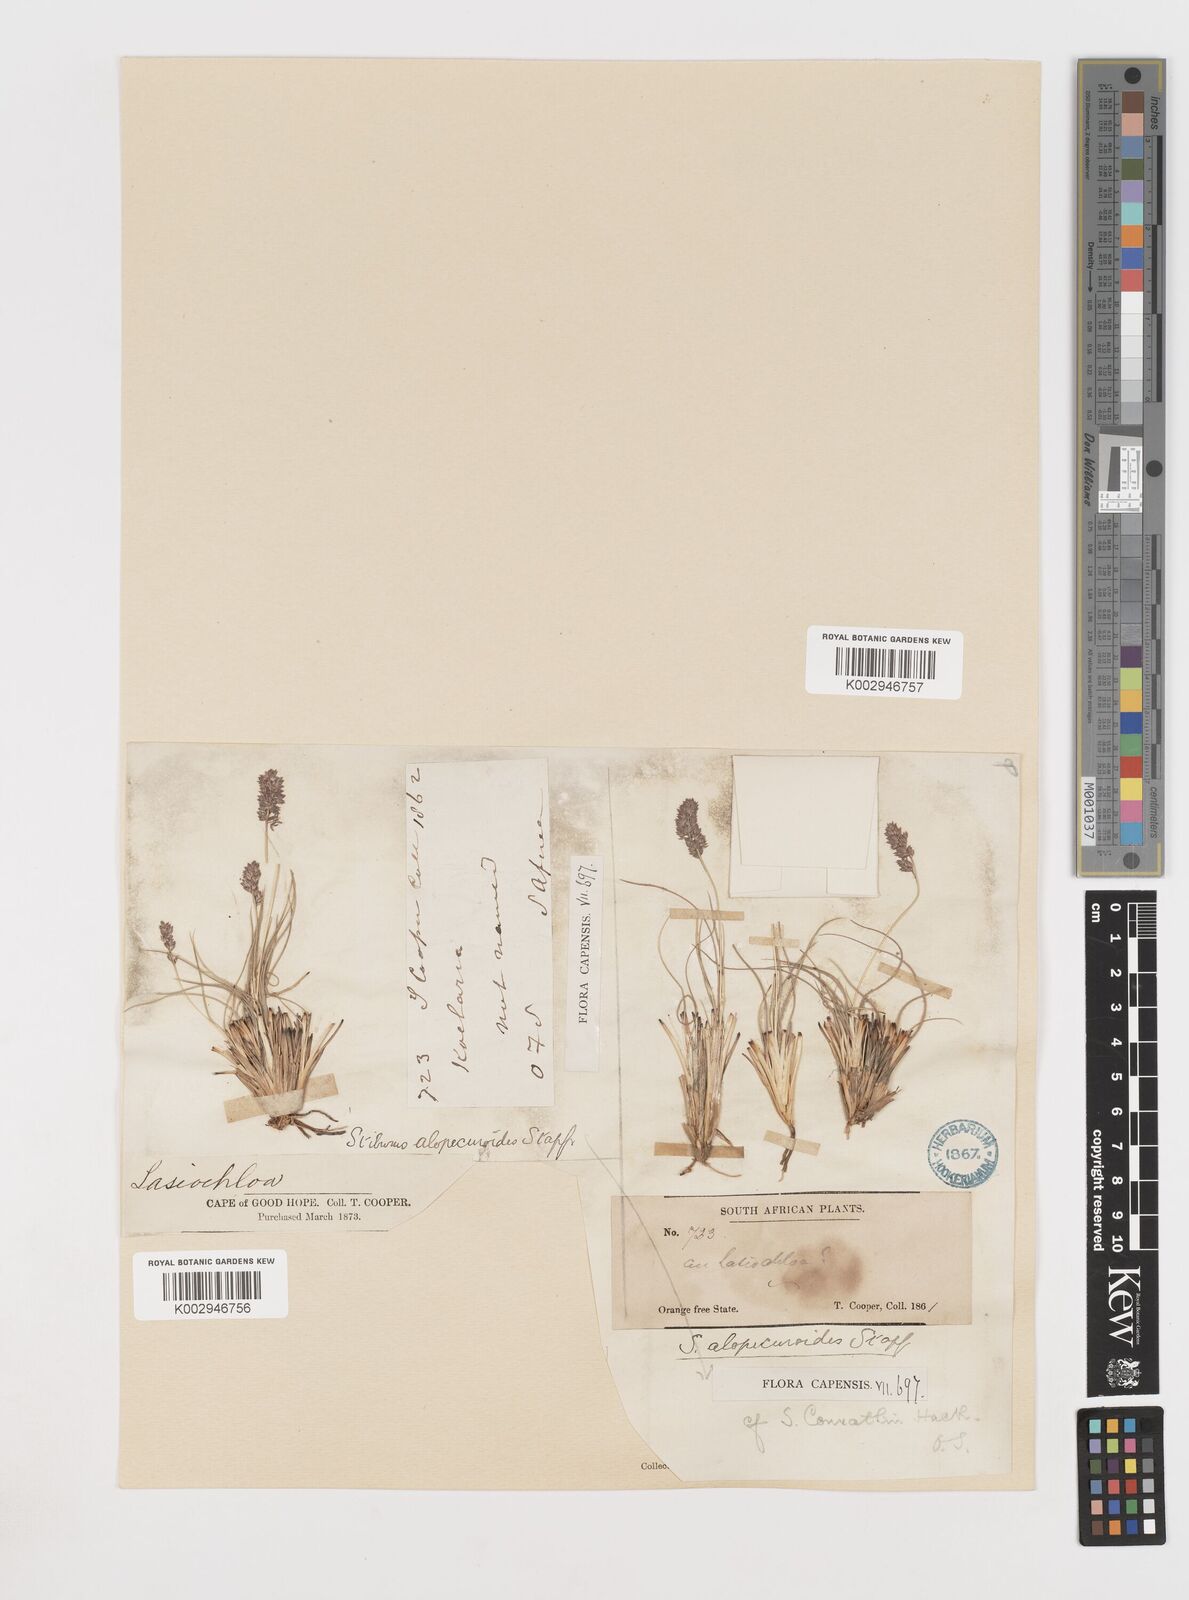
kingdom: Plantae
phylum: Tracheophyta
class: Liliopsida
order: Poales
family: Poaceae
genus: Stiburus
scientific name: Stiburus conrathii
